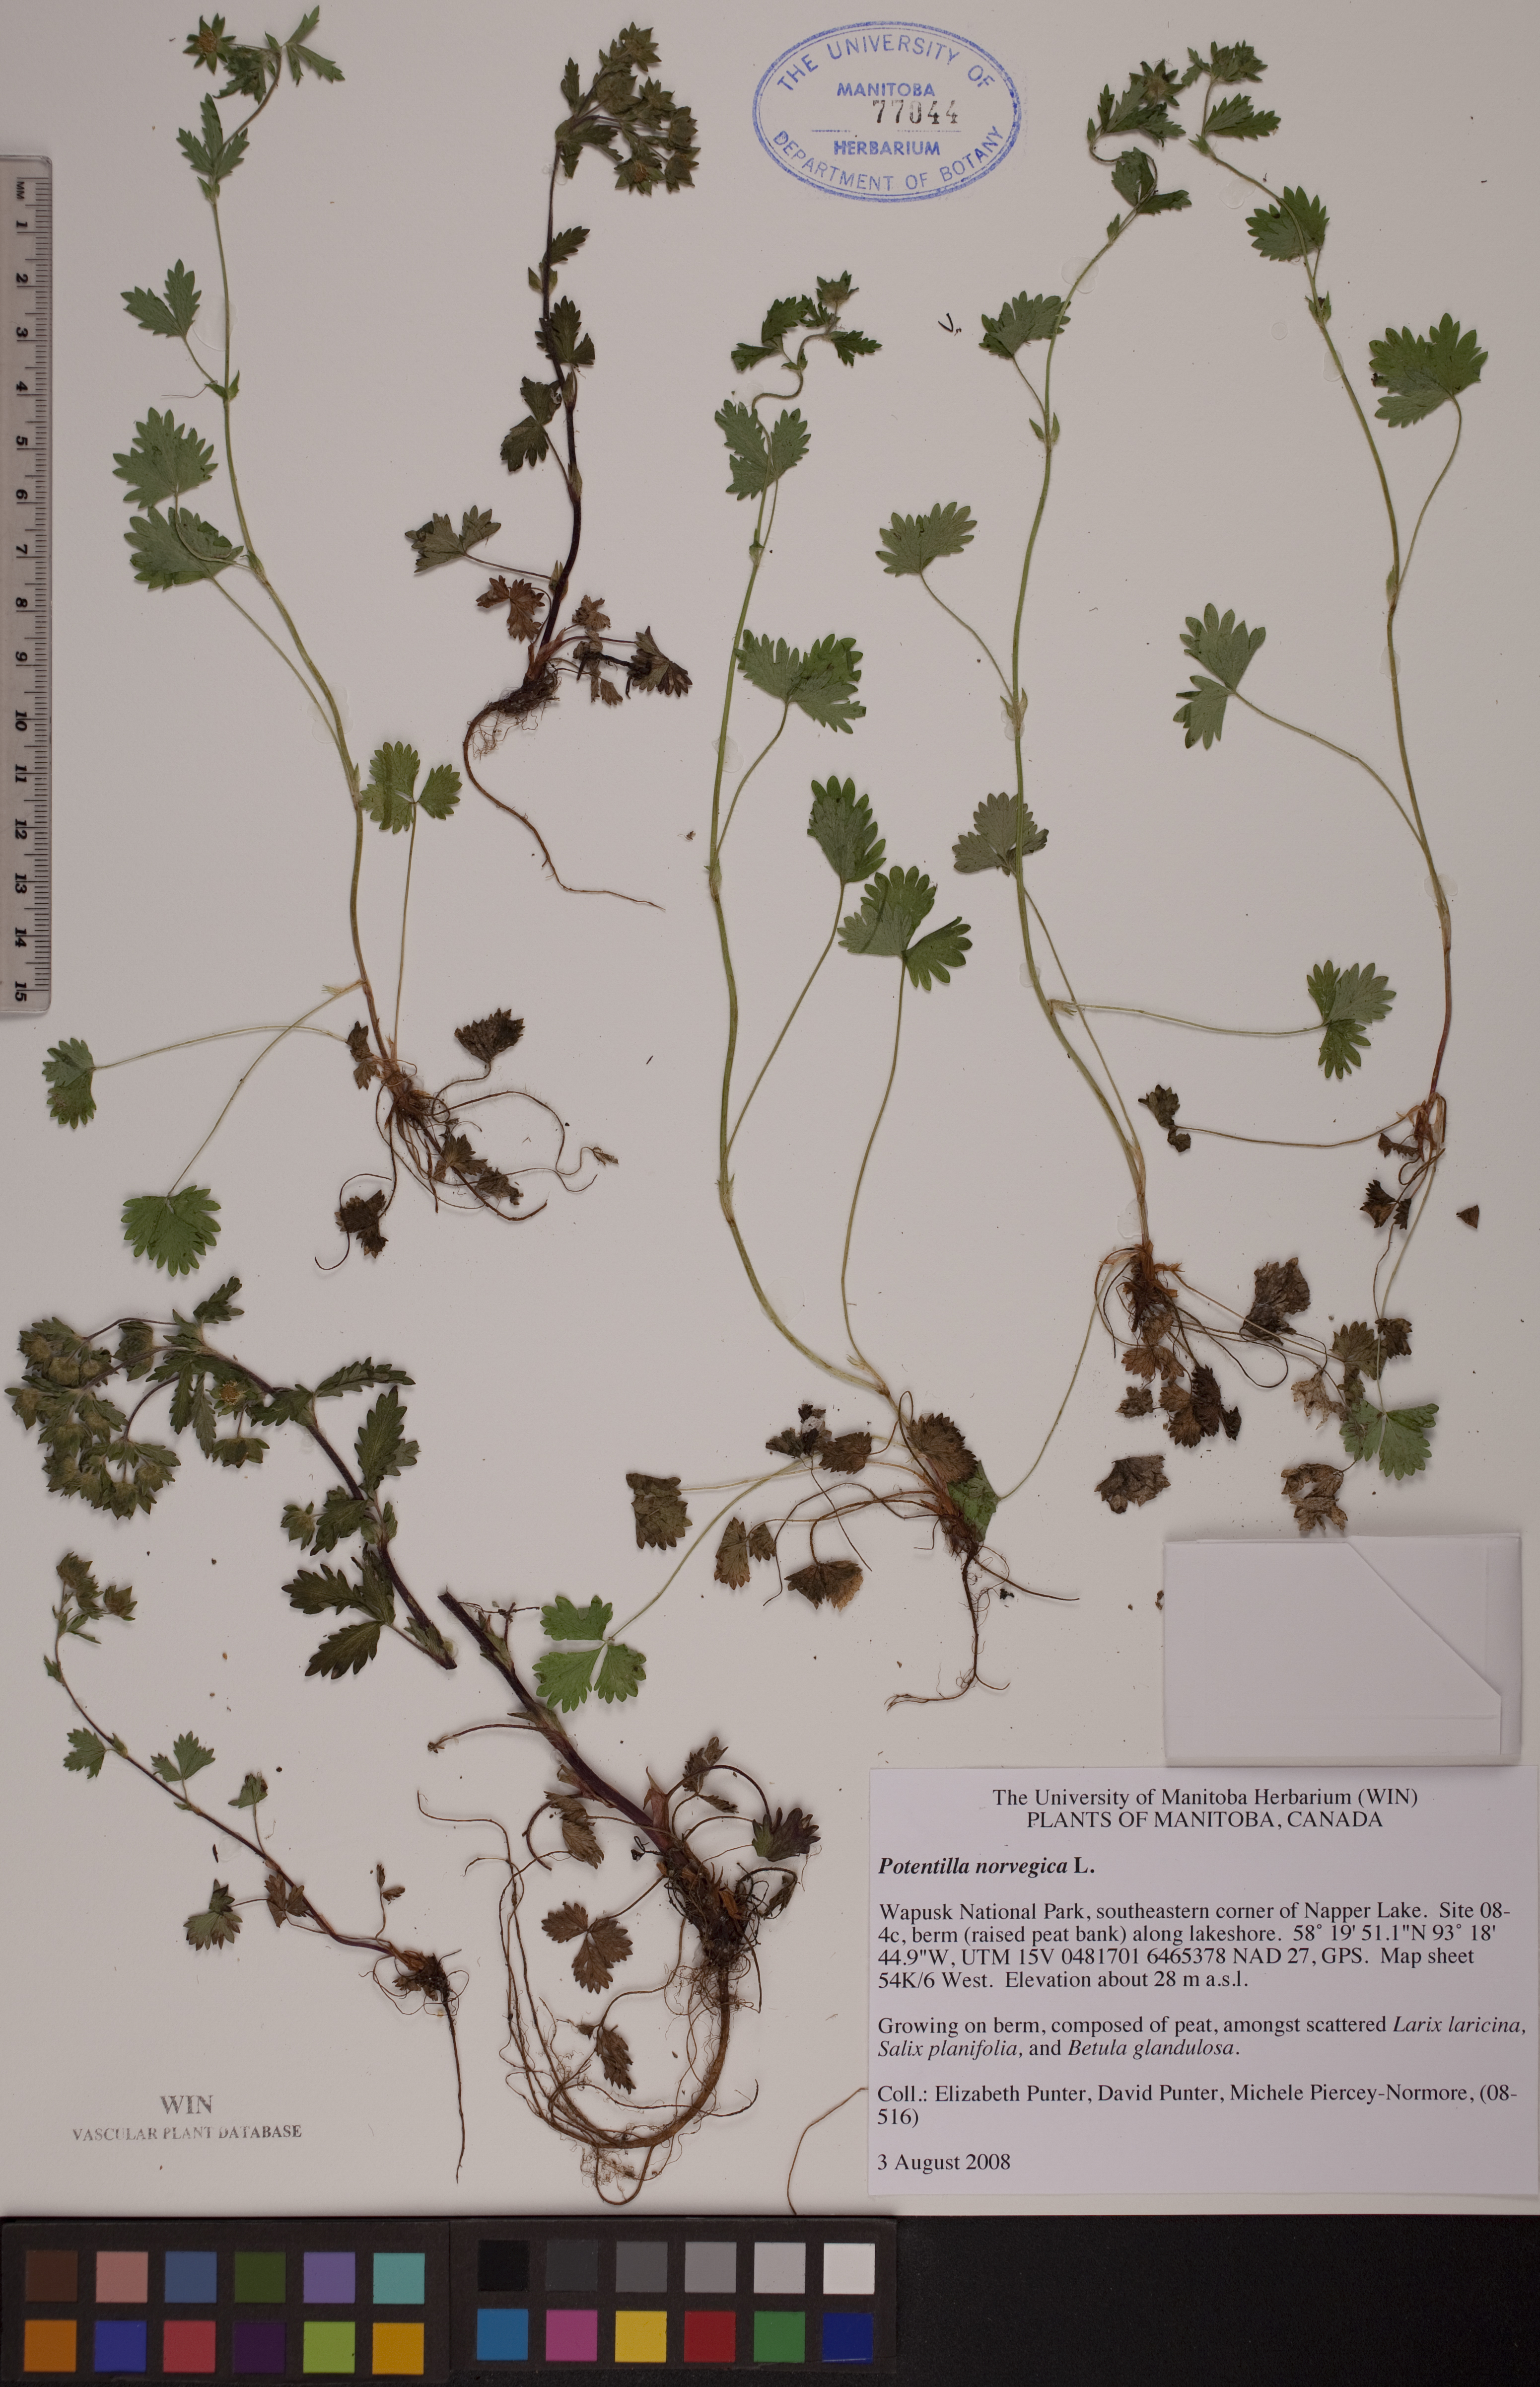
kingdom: Plantae
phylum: Tracheophyta
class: Magnoliopsida
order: Rosales
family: Rosaceae
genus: Potentilla
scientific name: Potentilla norvegica
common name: Ternate-leaved cinquefoil
